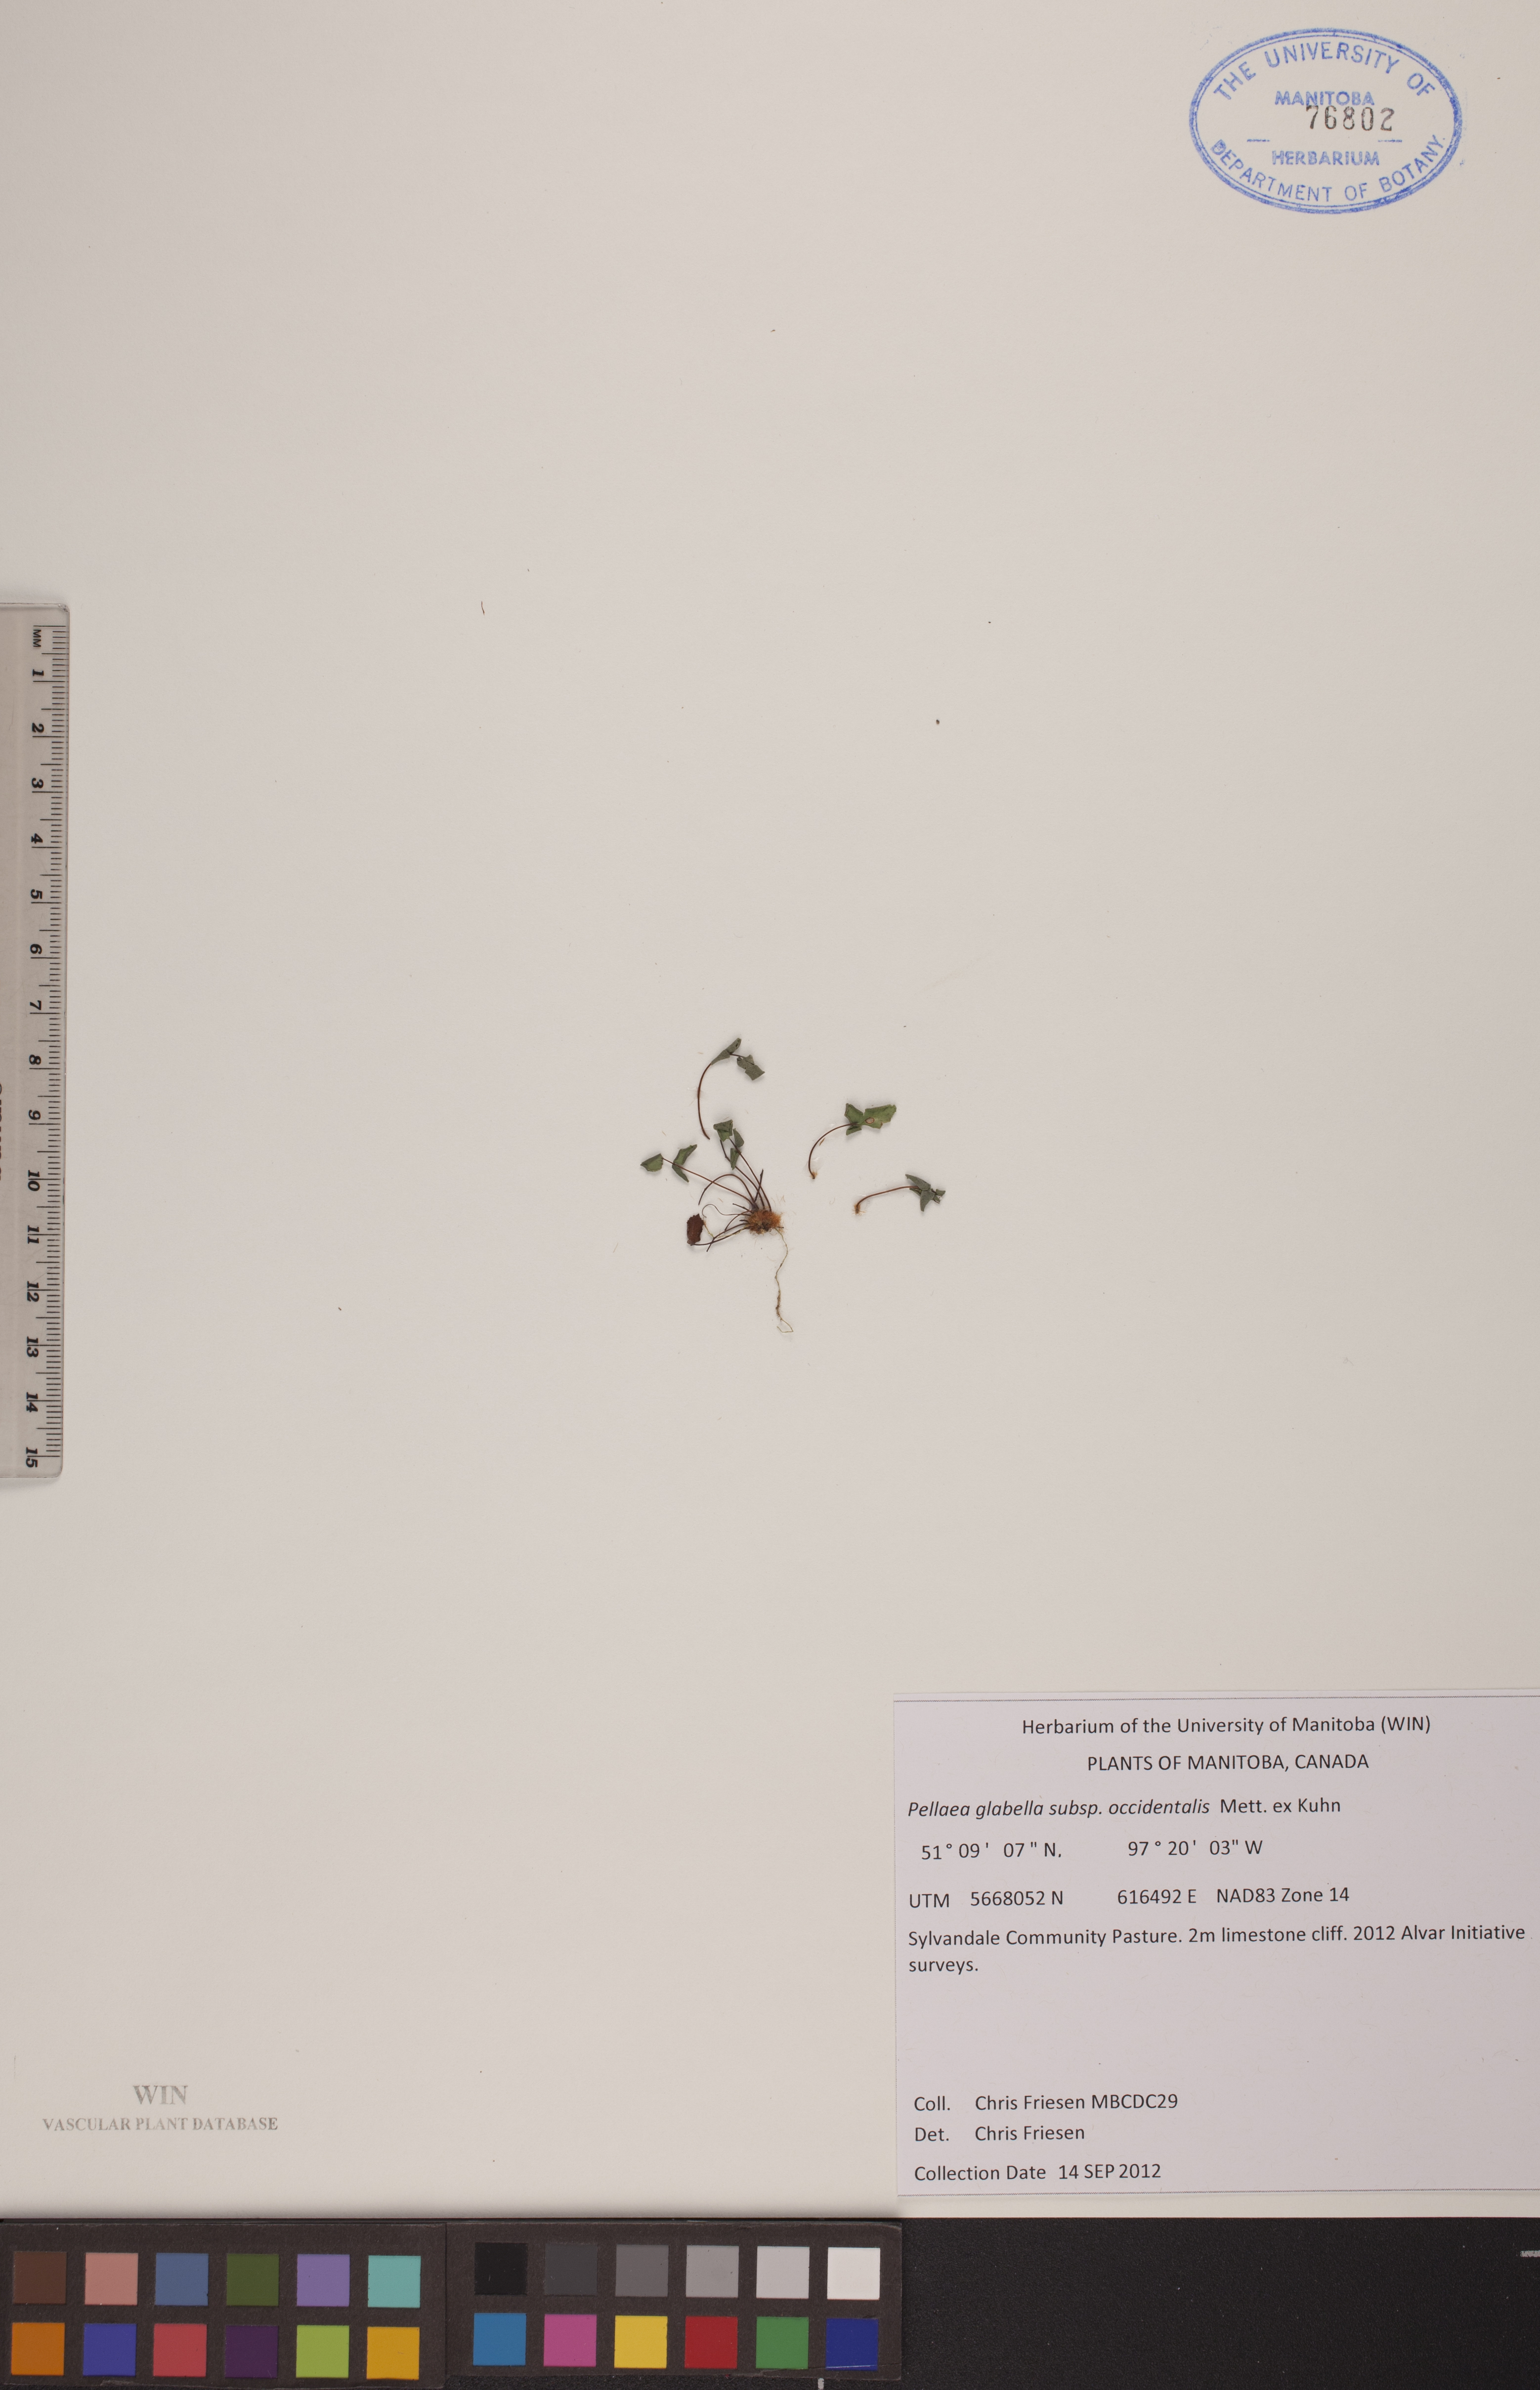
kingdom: Plantae
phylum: Tracheophyta
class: Polypodiopsida
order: Polypodiales
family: Pteridaceae
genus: Pellaea
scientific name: Pellaea glabella
